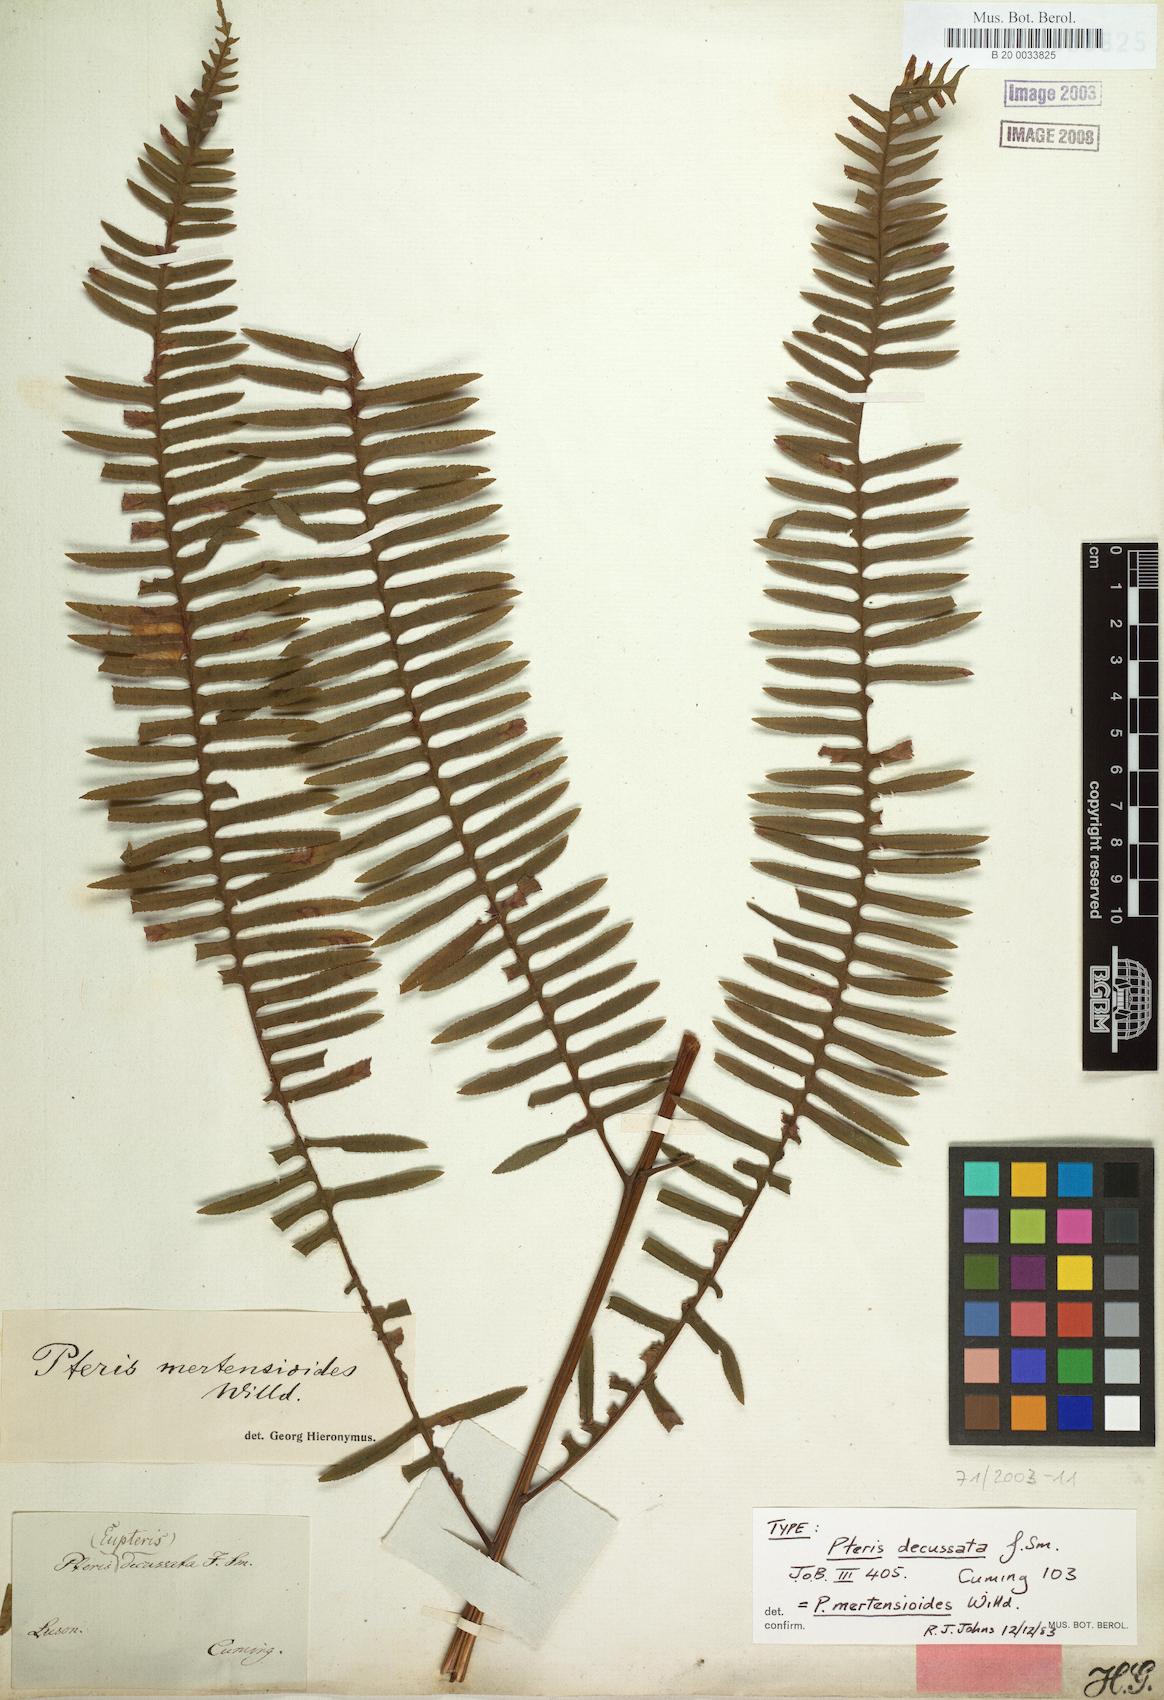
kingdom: Plantae
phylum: Tracheophyta
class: Polypodiopsida
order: Polypodiales
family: Pteridaceae
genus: Pteris
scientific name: Pteris mertensioides
